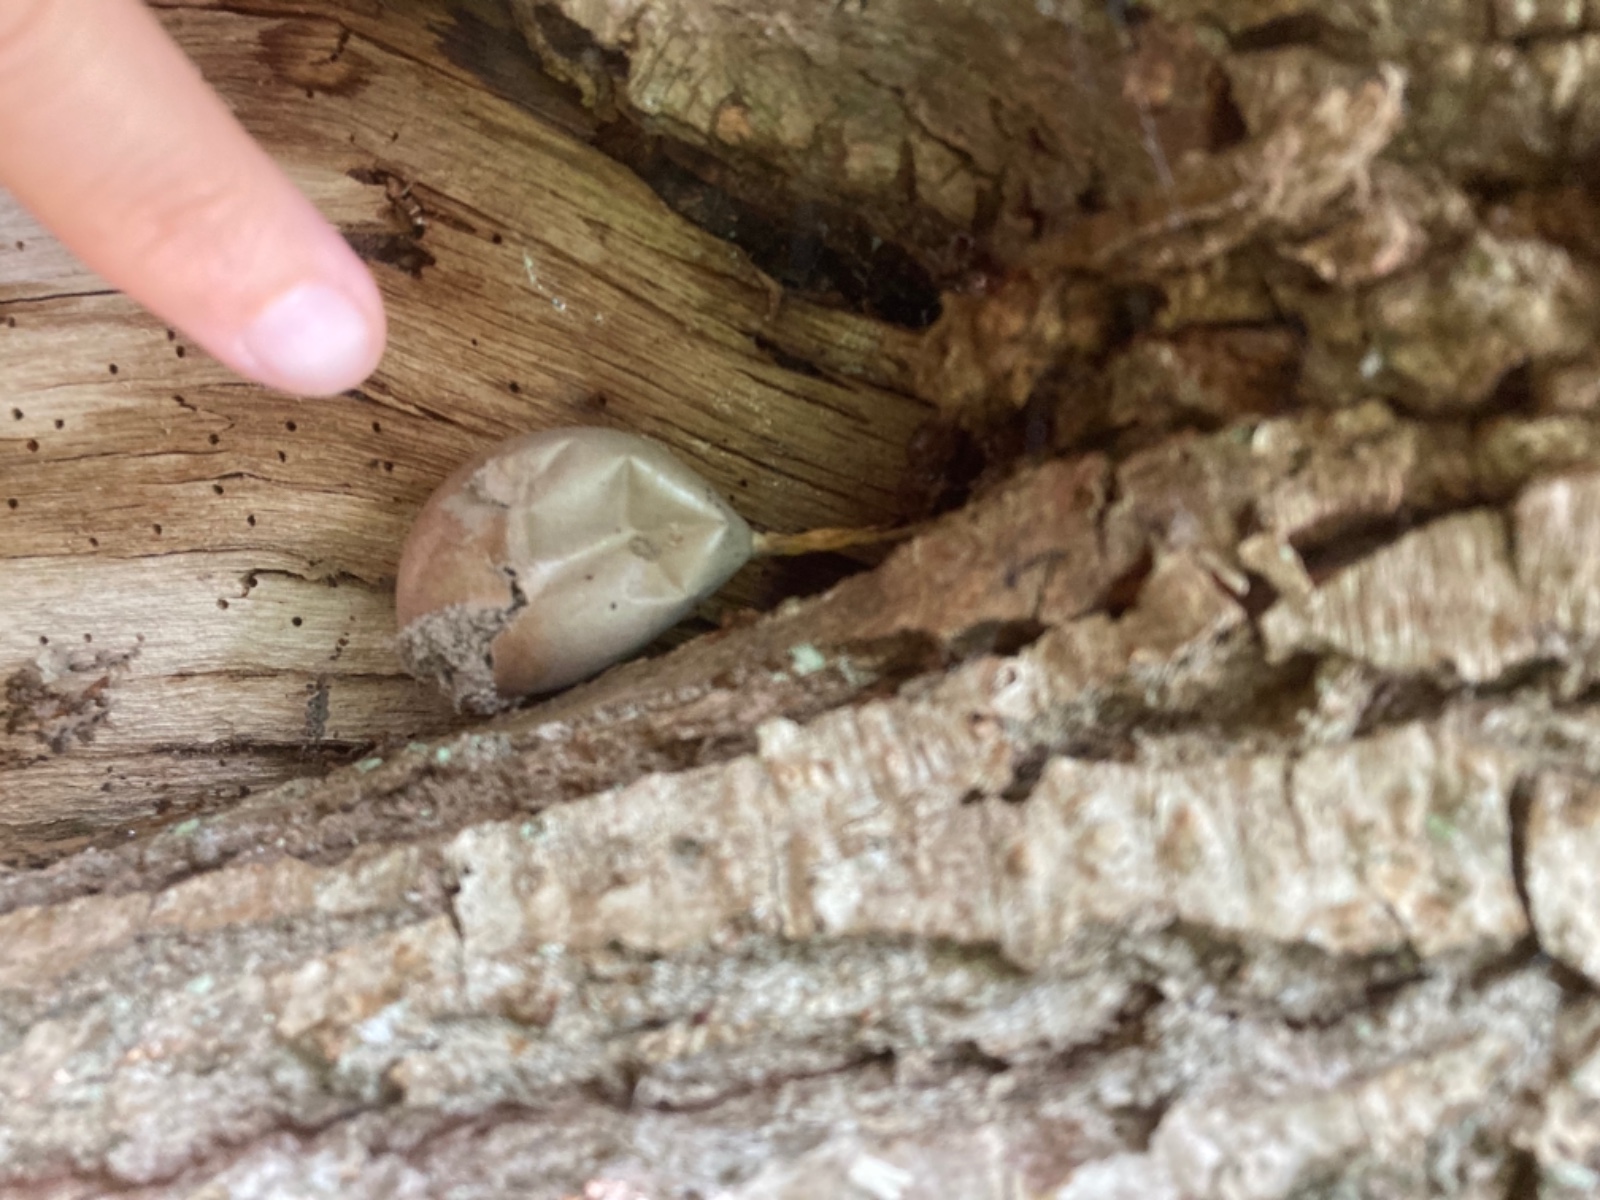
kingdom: Protozoa
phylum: Mycetozoa
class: Myxomycetes
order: Cribrariales
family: Tubiferaceae
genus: Lycogala
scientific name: Lycogala flavofuscum
